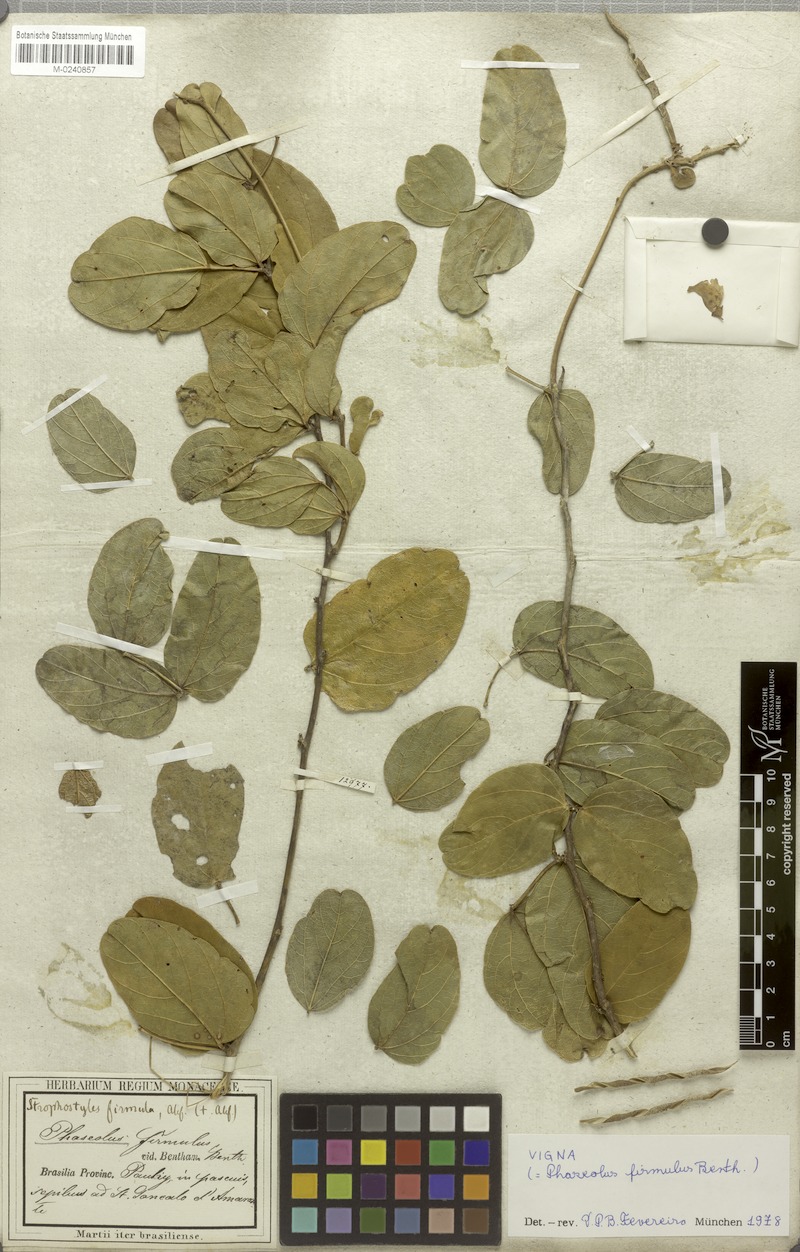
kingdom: Plantae
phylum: Tracheophyta
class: Magnoliopsida
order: Fabales
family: Fabaceae
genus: Ancistrotropis
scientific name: Ancistrotropis firmula
